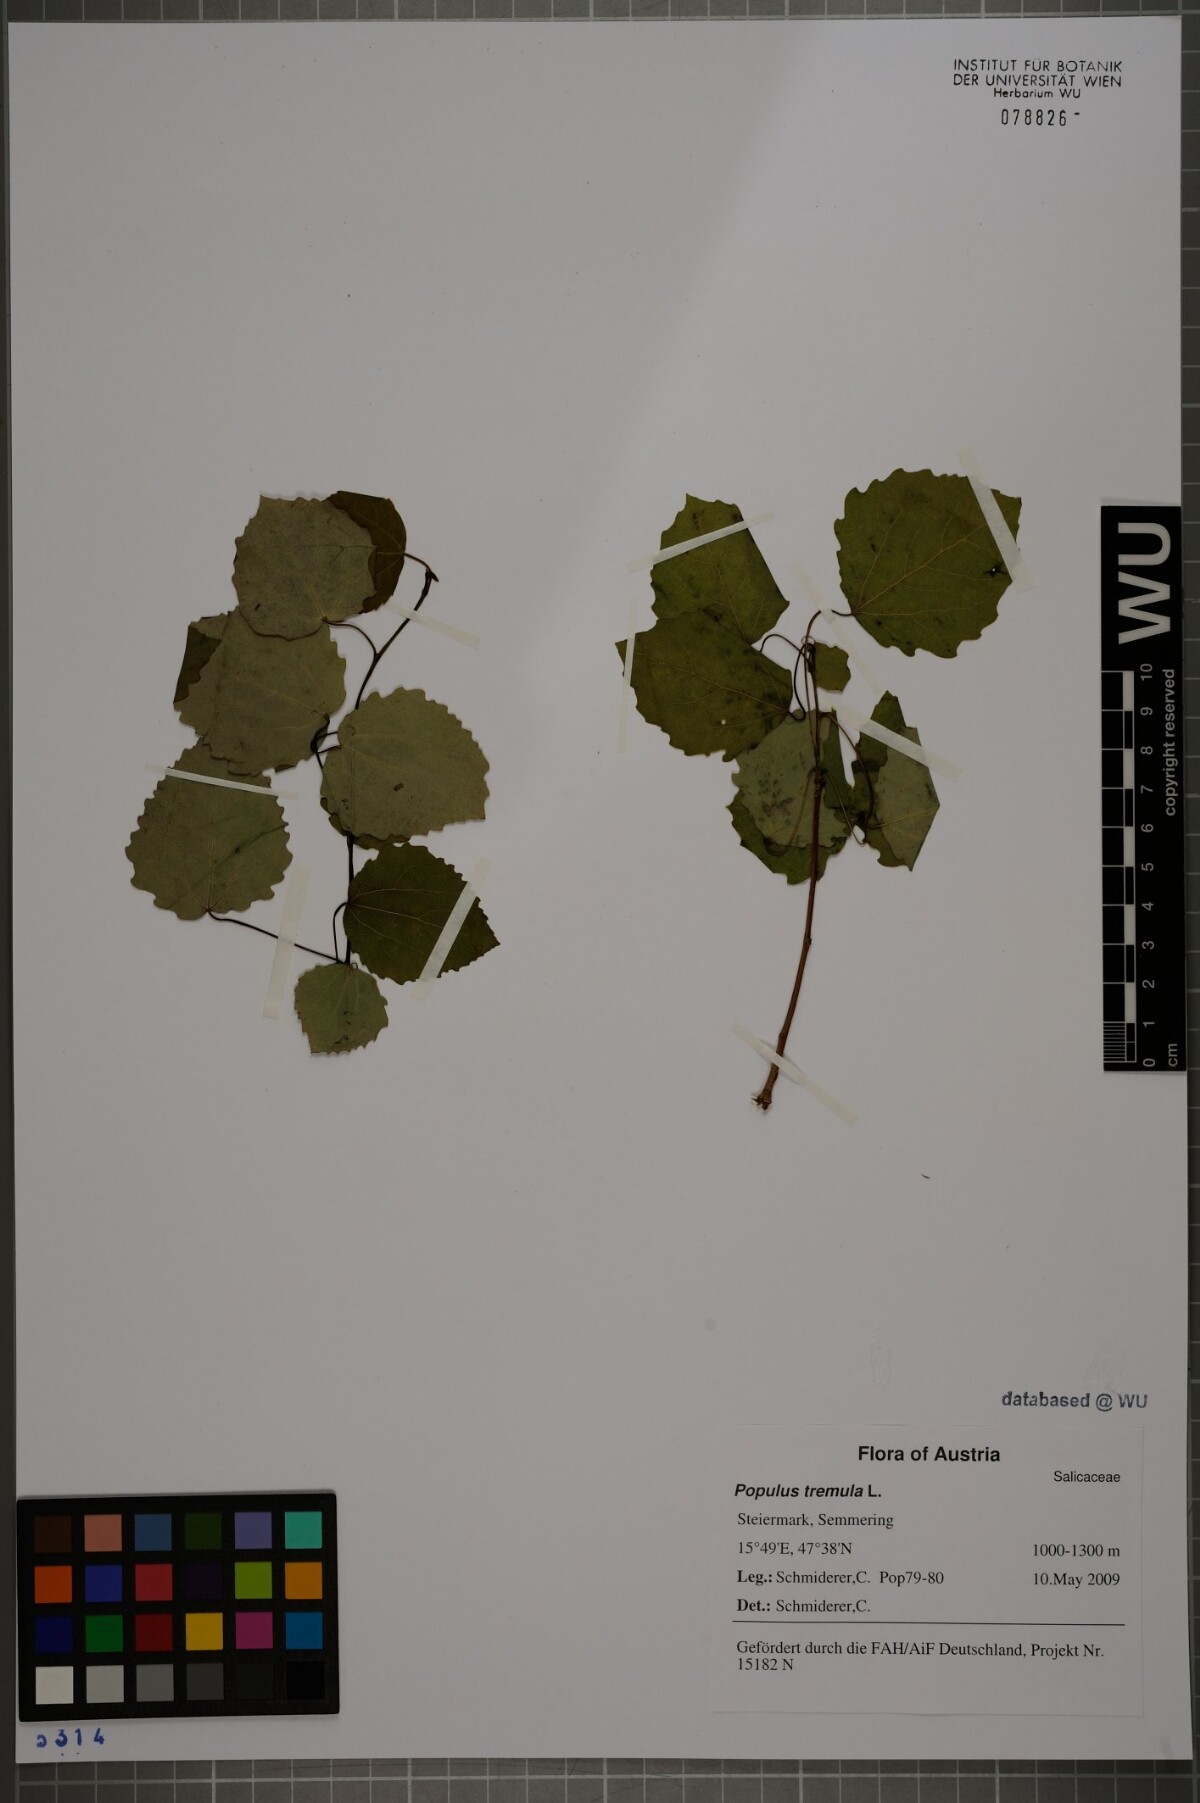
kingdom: Plantae
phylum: Tracheophyta
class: Magnoliopsida
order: Malpighiales
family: Salicaceae
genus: Populus
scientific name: Populus tremula
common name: European aspen
